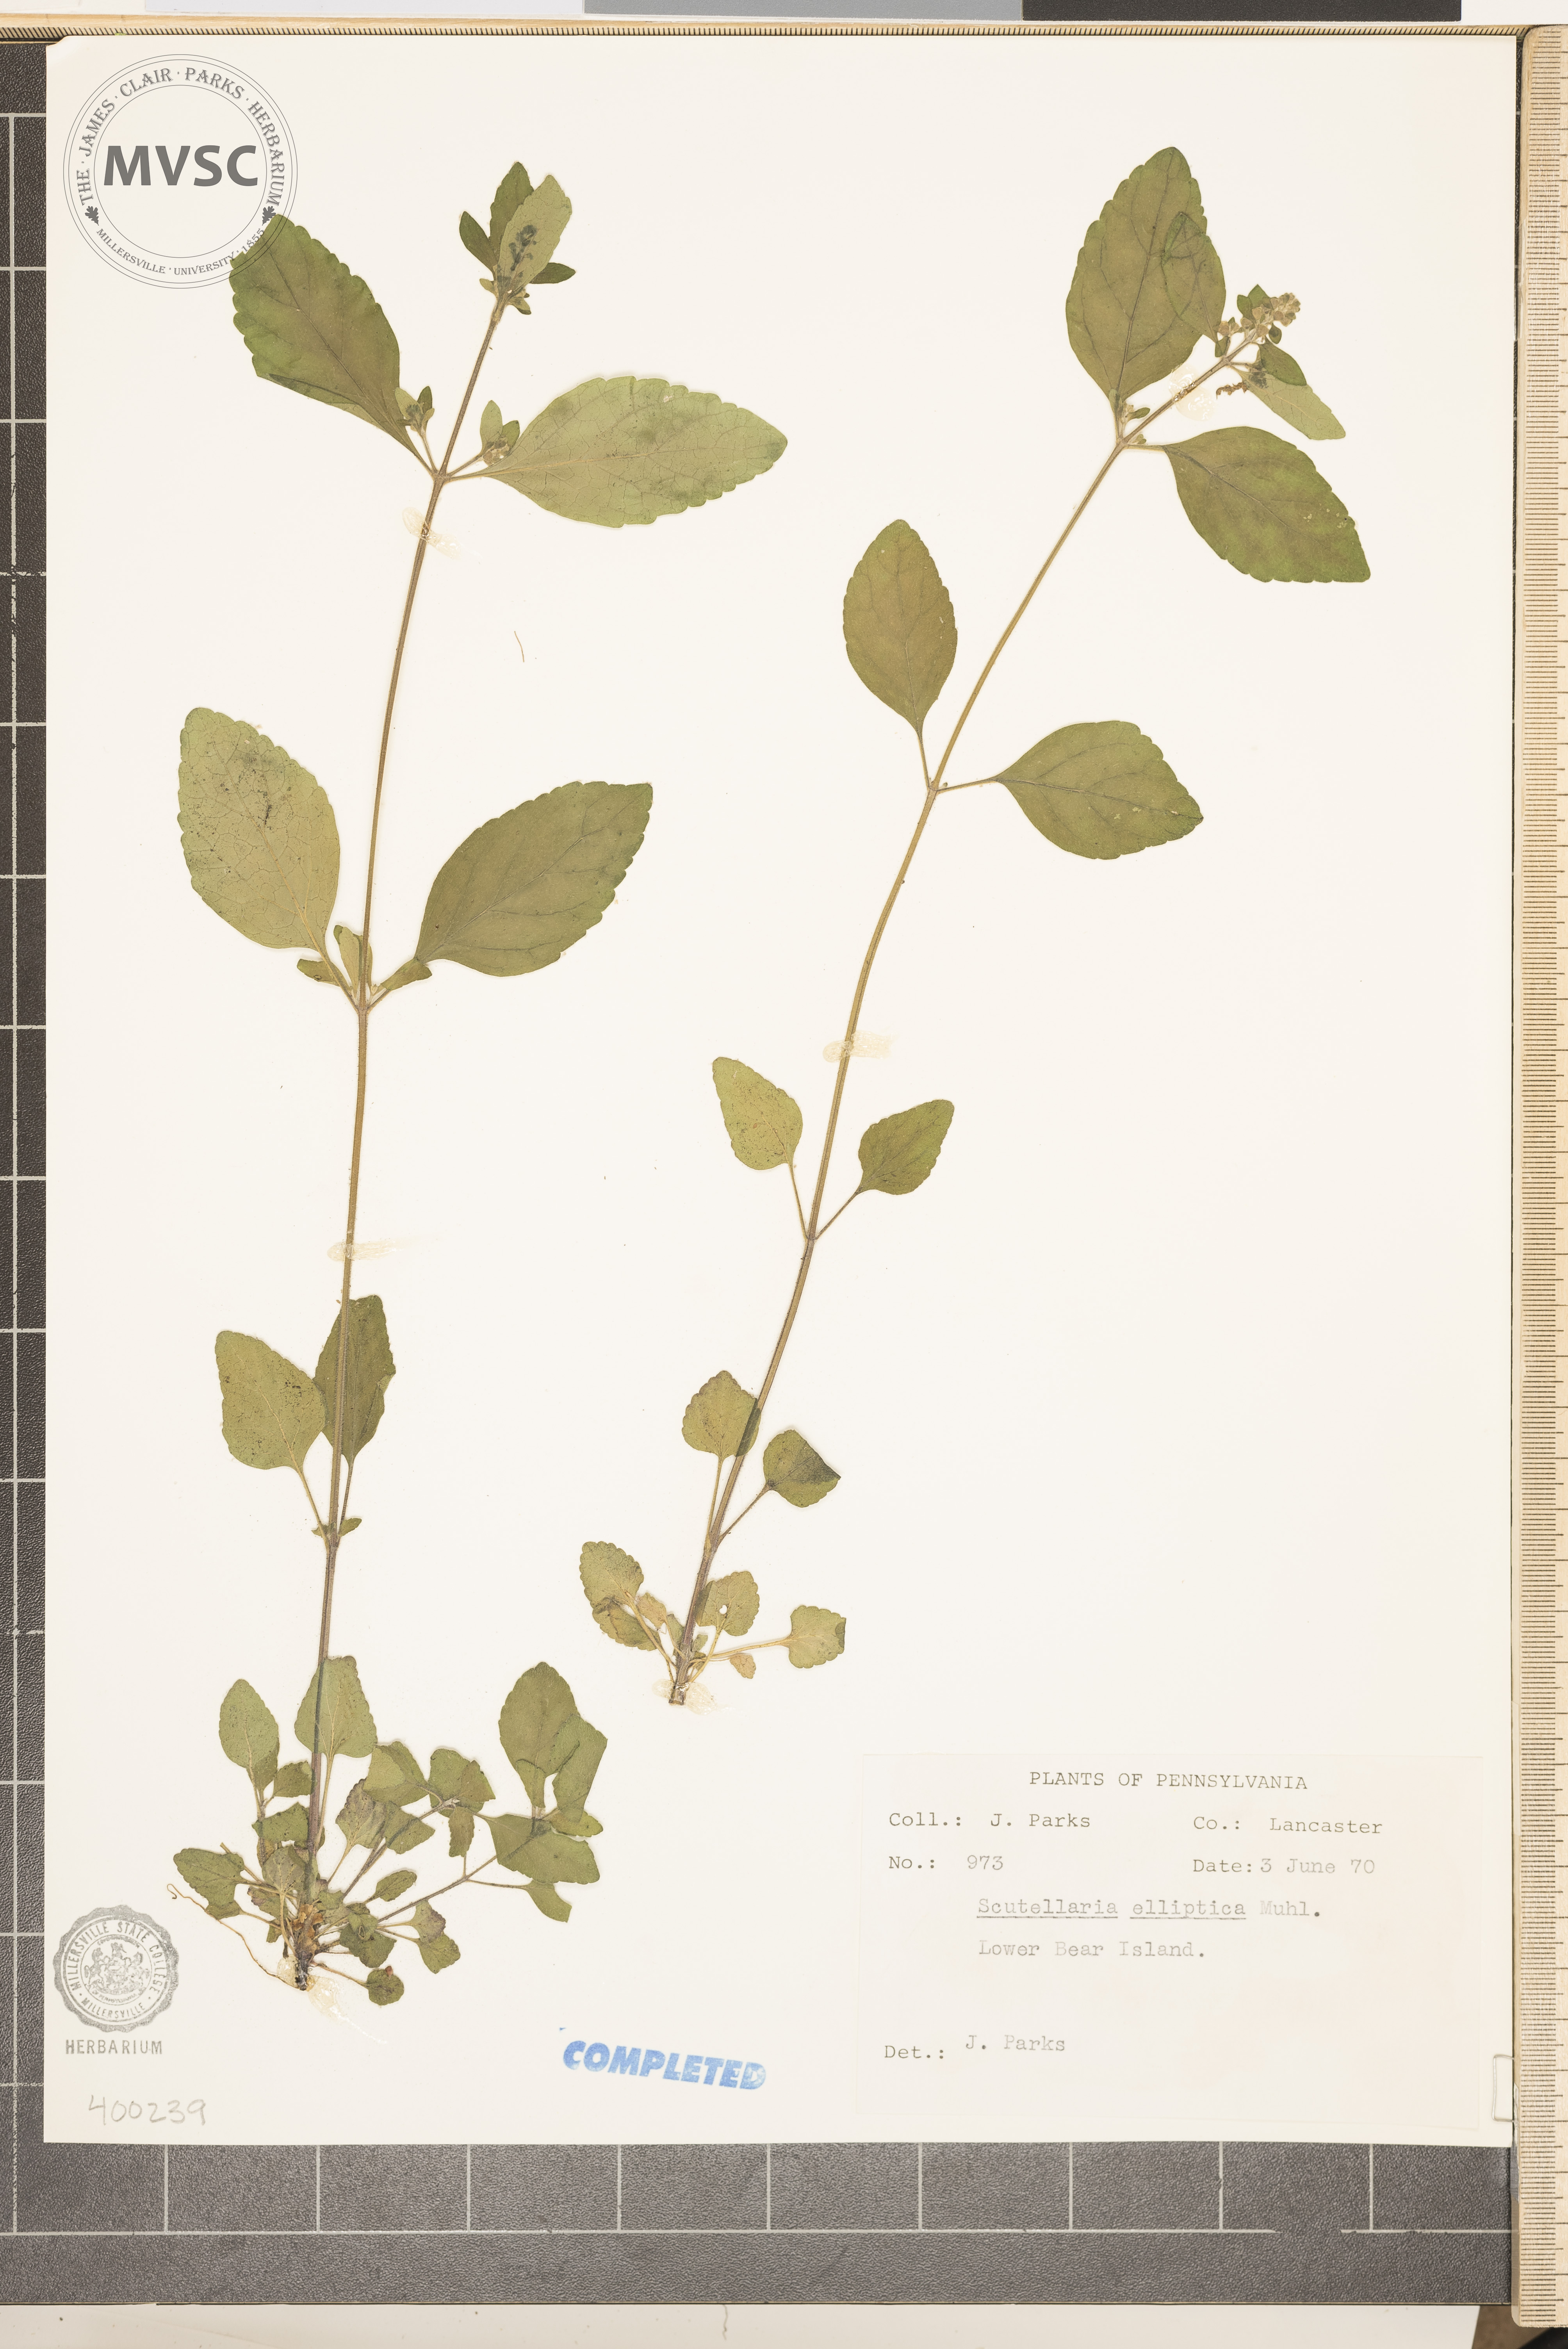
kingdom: Plantae
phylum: Tracheophyta
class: Magnoliopsida
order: Lamiales
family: Lamiaceae
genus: Scutellaria
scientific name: Scutellaria elliptica
